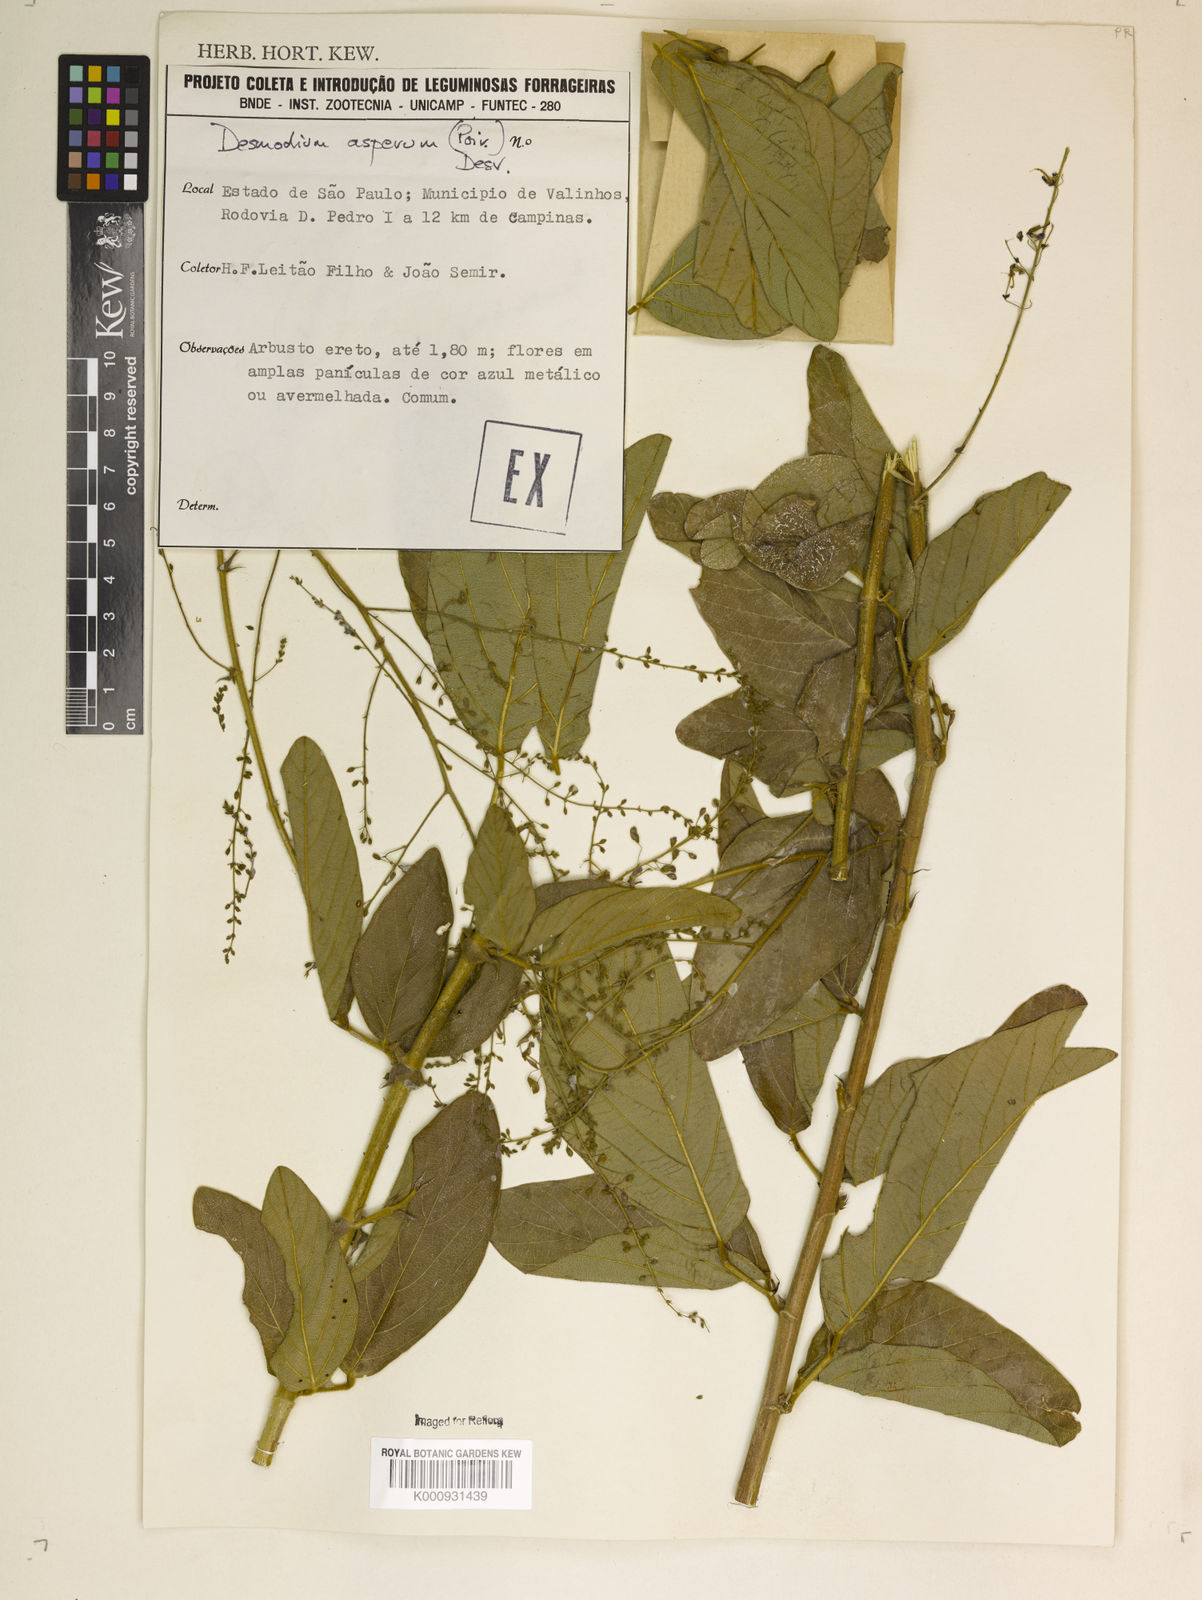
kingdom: Plantae
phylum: Tracheophyta
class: Magnoliopsida
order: Fabales
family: Fabaceae
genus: Desmodium
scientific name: Desmodium distortum
